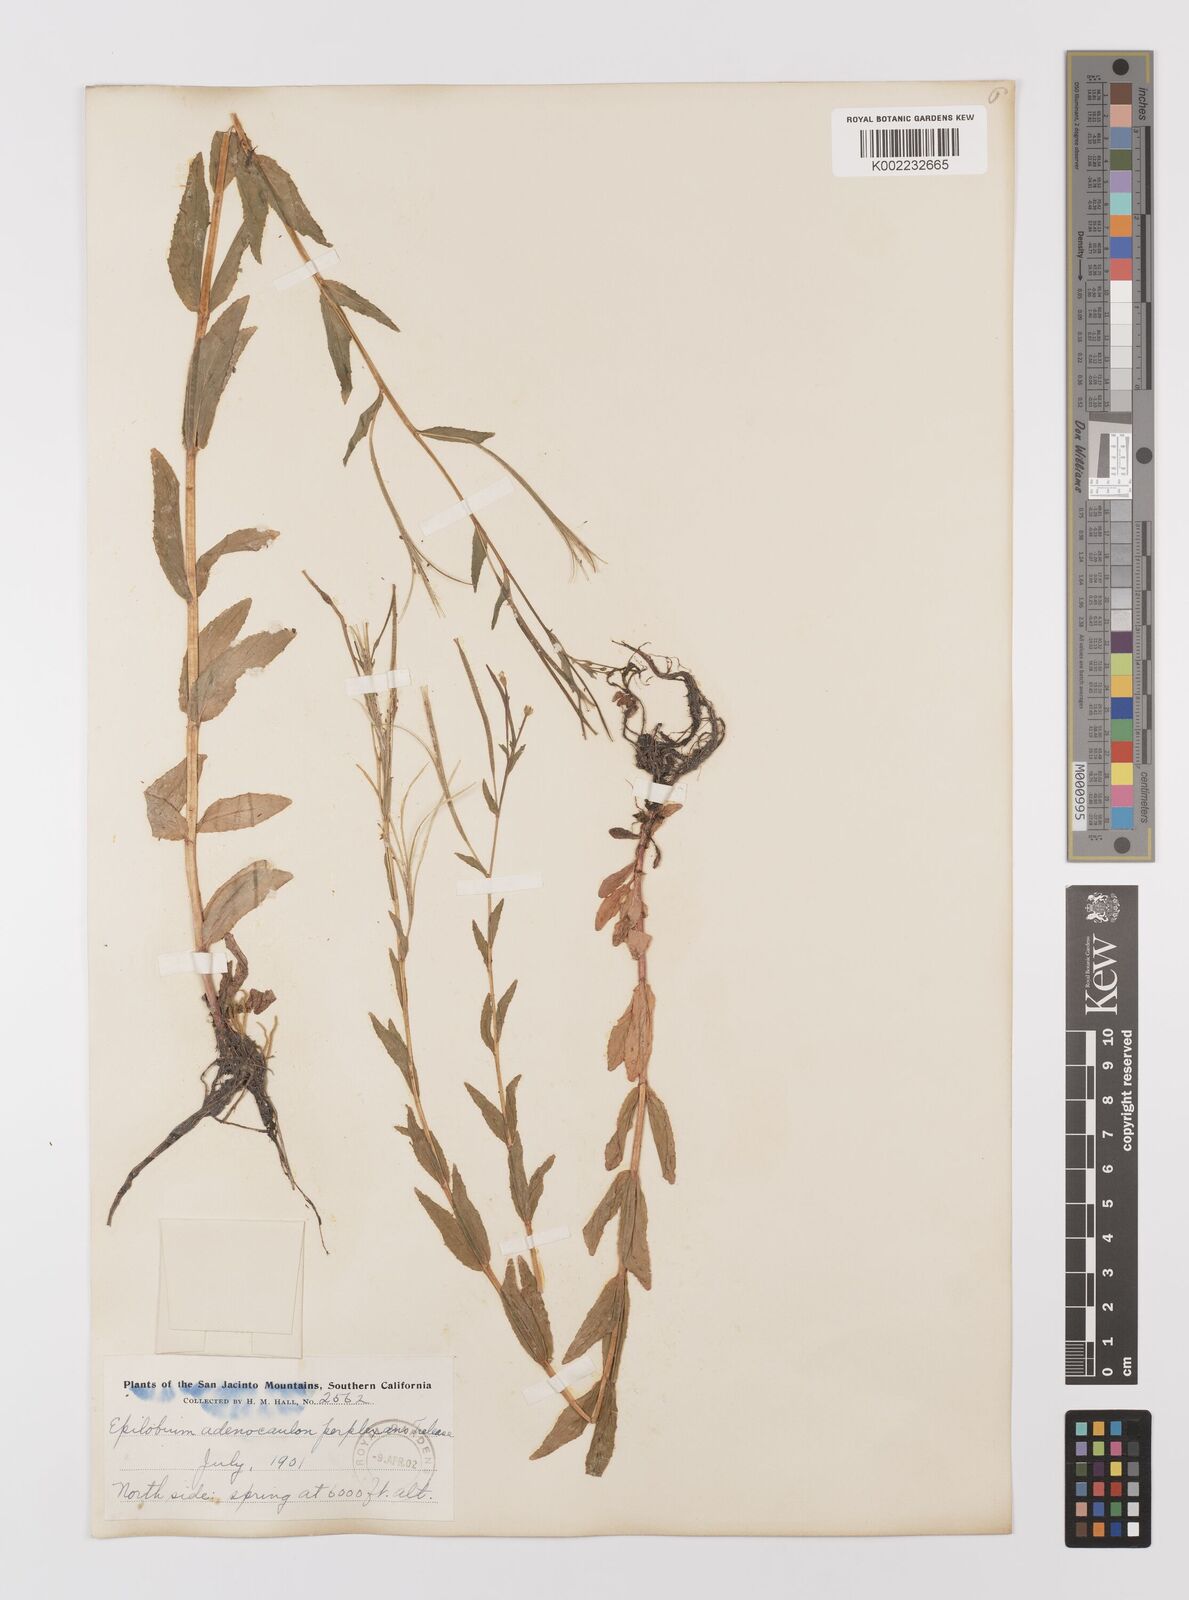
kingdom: Plantae
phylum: Tracheophyta
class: Magnoliopsida
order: Myrtales
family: Onagraceae
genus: Epilobium
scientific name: Epilobium ciliatum
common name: American willowherb
